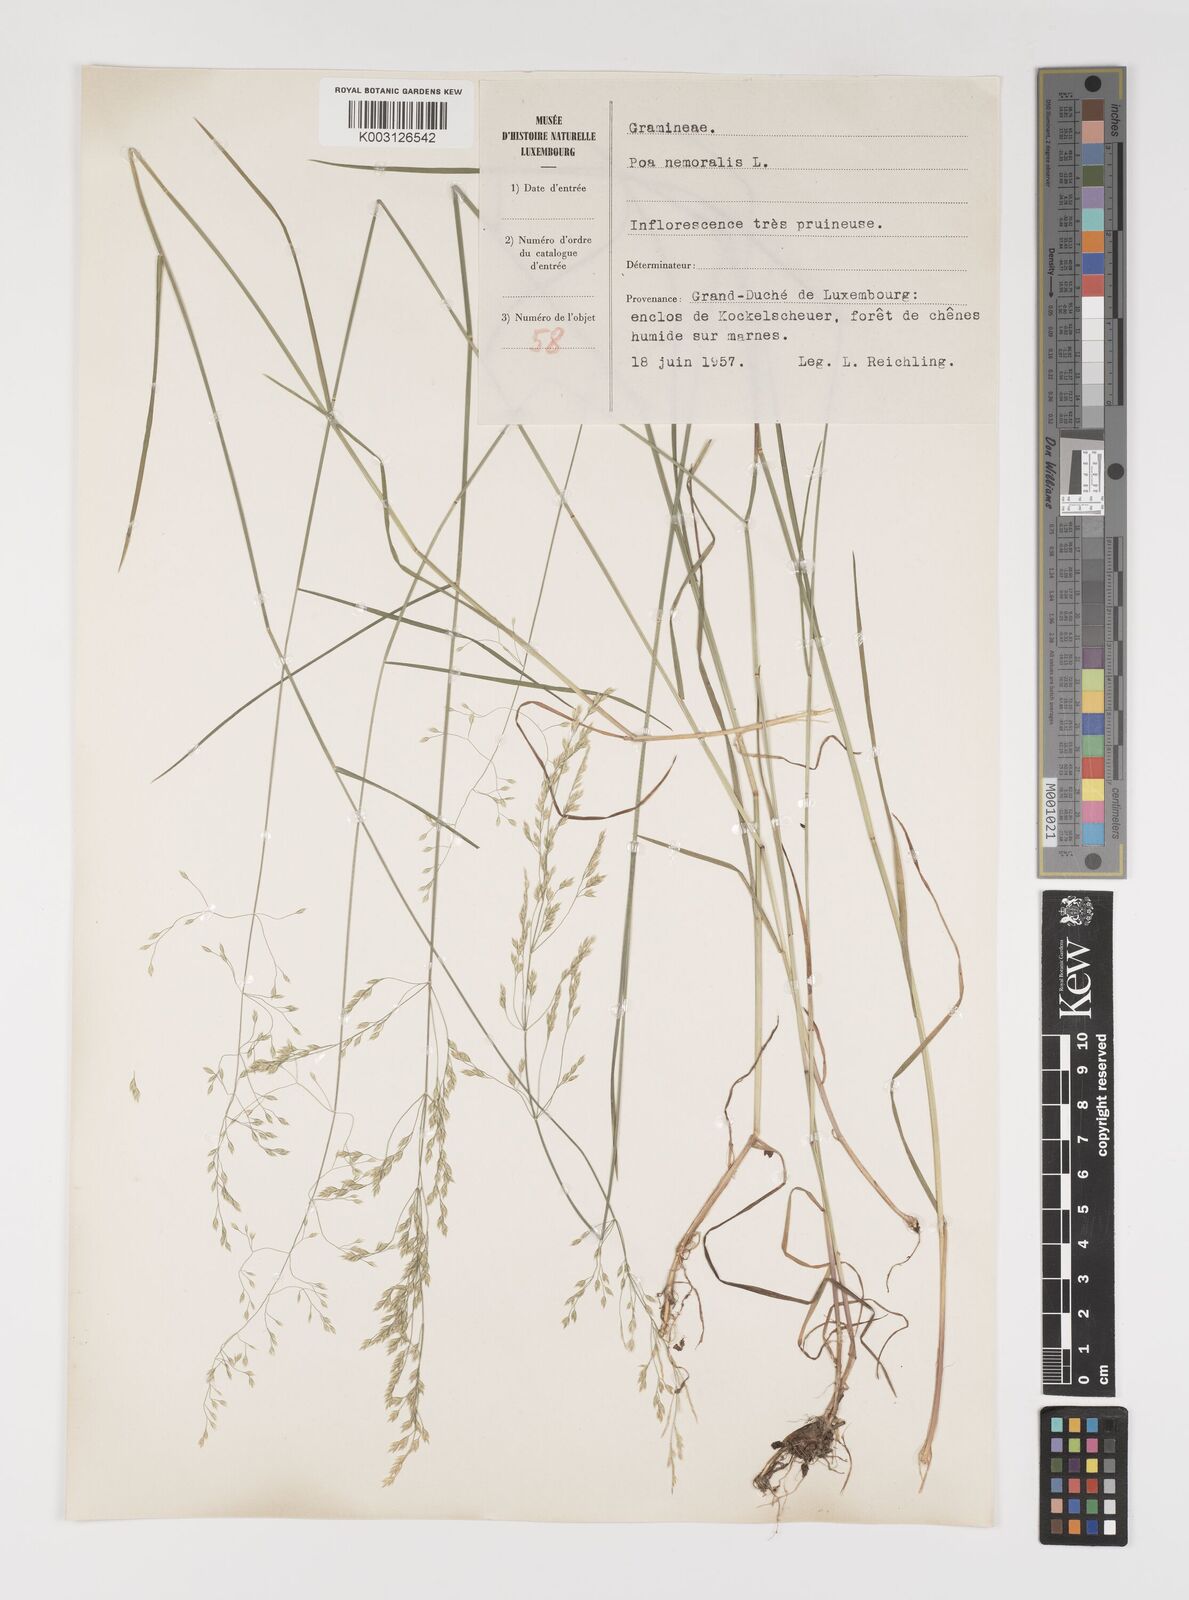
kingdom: Plantae
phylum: Tracheophyta
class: Liliopsida
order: Poales
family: Poaceae
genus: Poa
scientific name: Poa nemoralis
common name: Wood bluegrass
